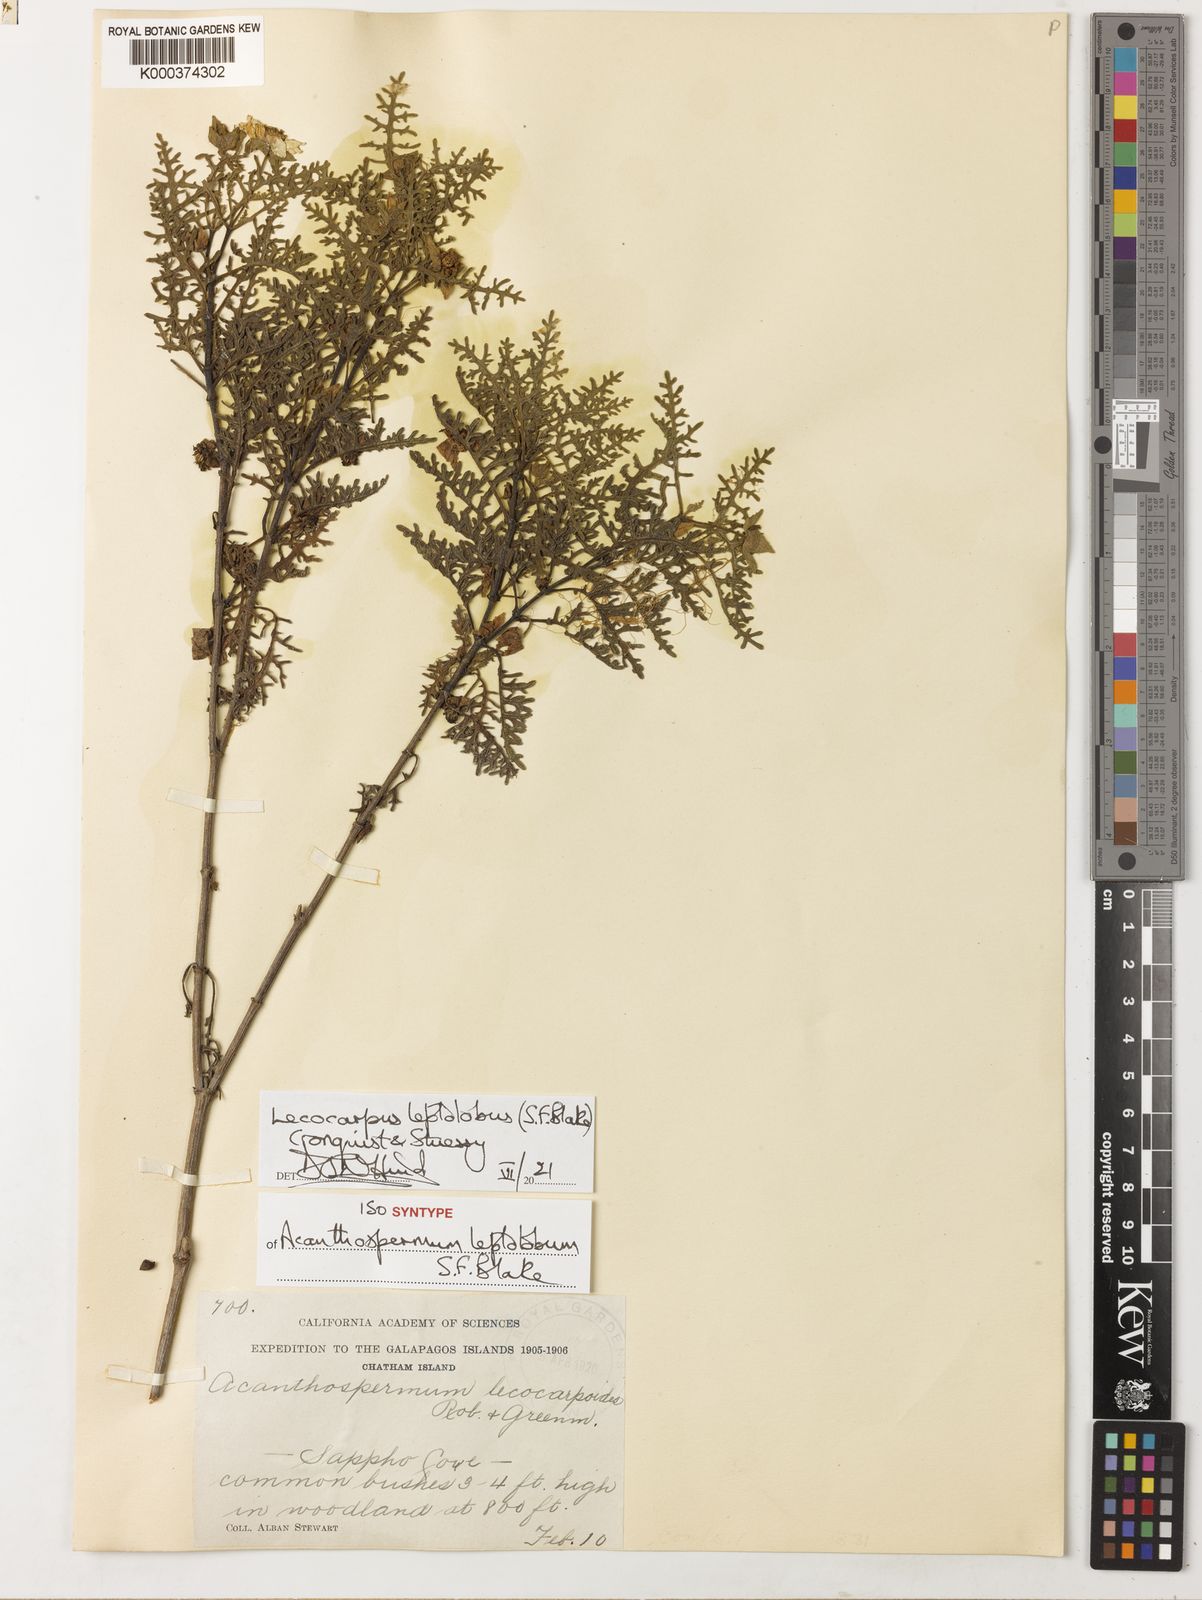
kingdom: Plantae
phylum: Tracheophyta
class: Magnoliopsida
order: Asterales
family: Asteraceae
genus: Lecocarpus
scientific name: Lecocarpus leptolobus
